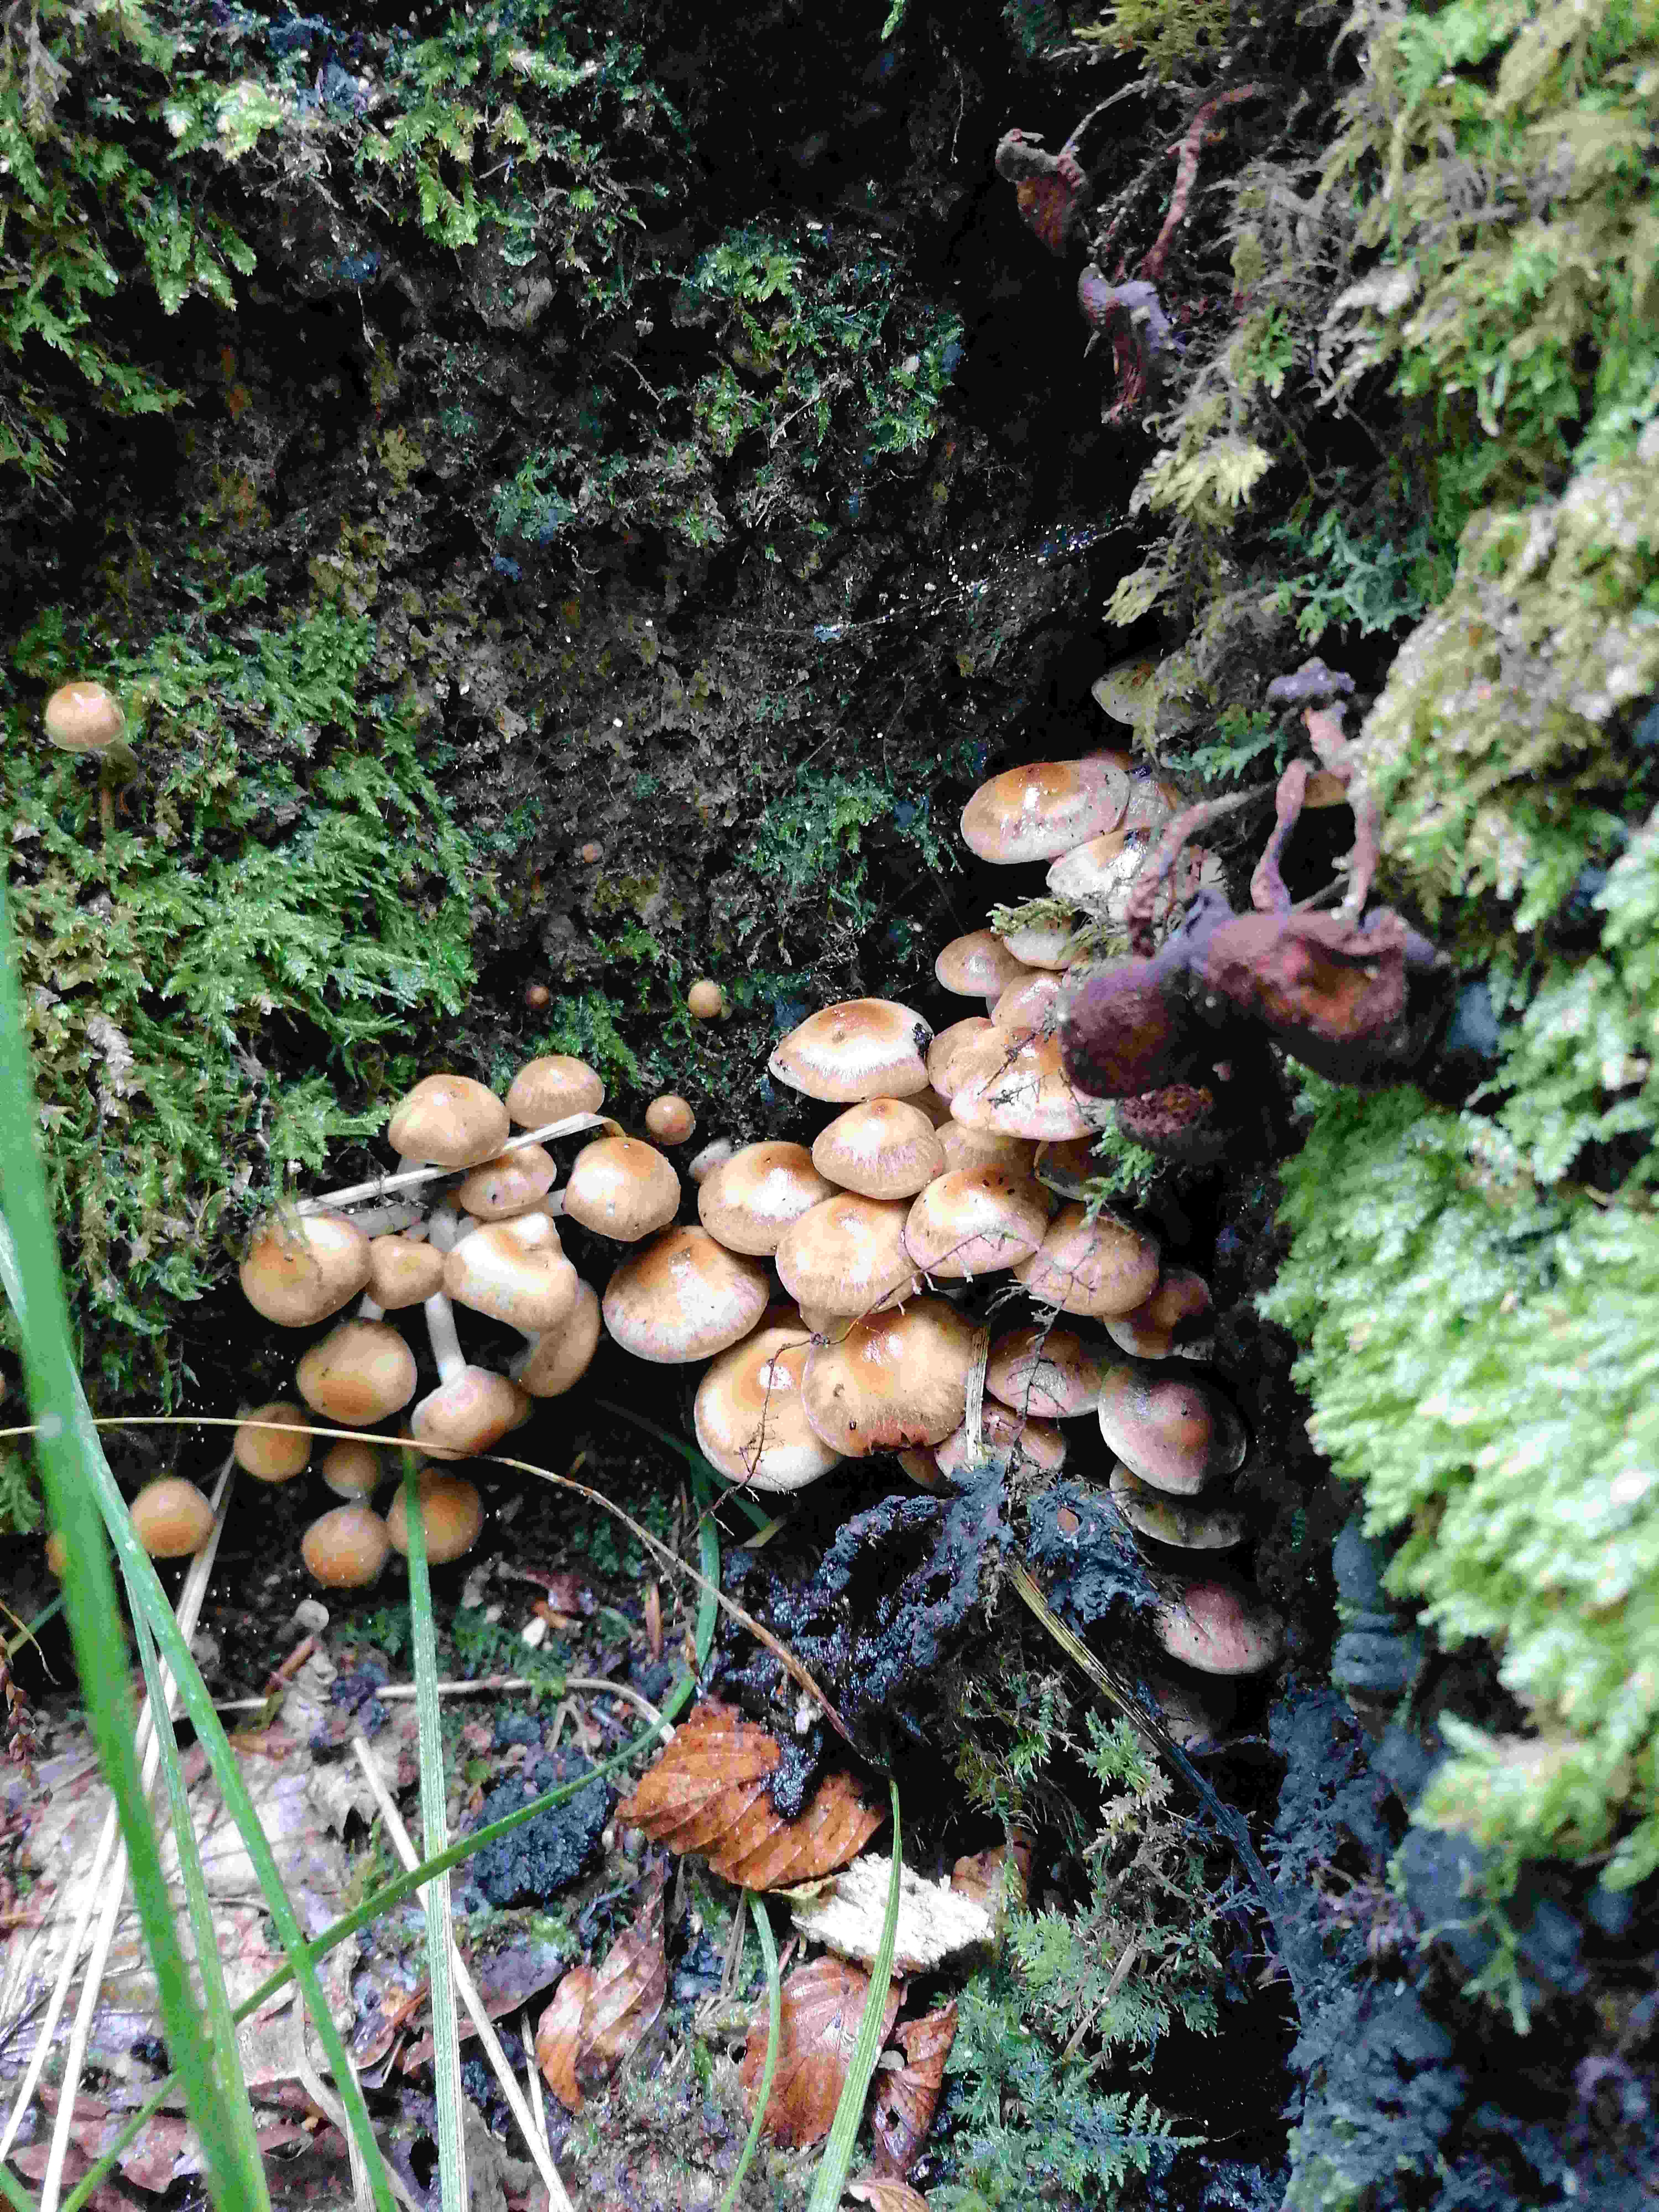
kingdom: Fungi
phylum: Basidiomycota
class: Agaricomycetes
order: Agaricales
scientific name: Agaricales
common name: champignonordenen
